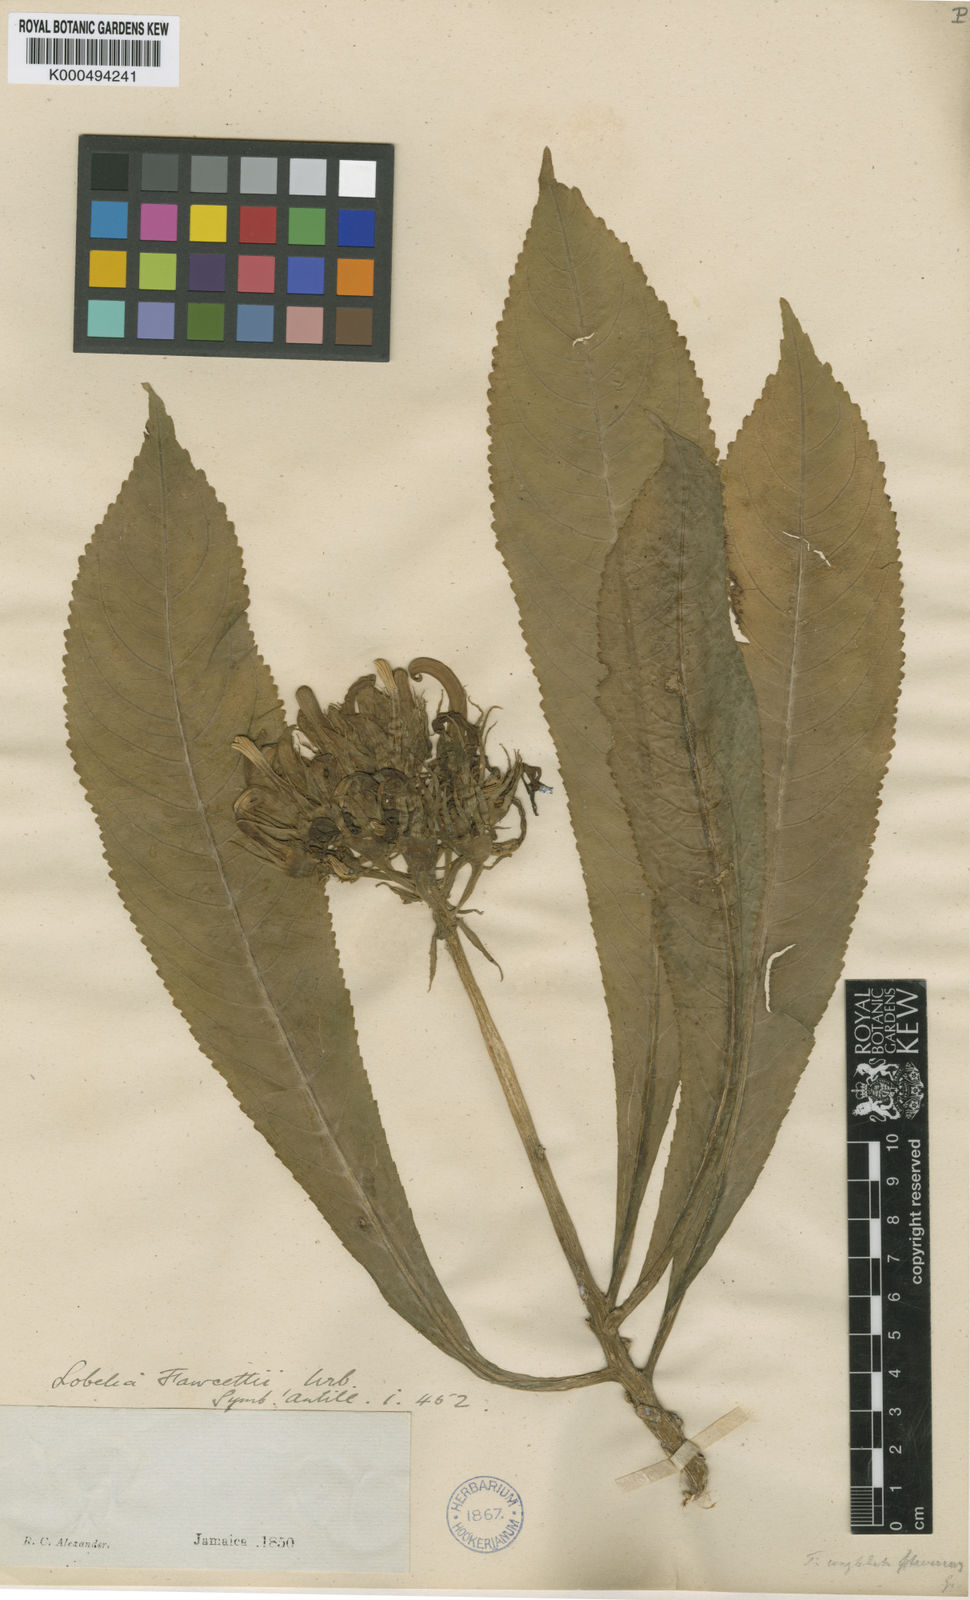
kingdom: Plantae
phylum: Tracheophyta
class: Magnoliopsida
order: Asterales
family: Campanulaceae
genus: Lobelia
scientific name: Lobelia fawcettii
